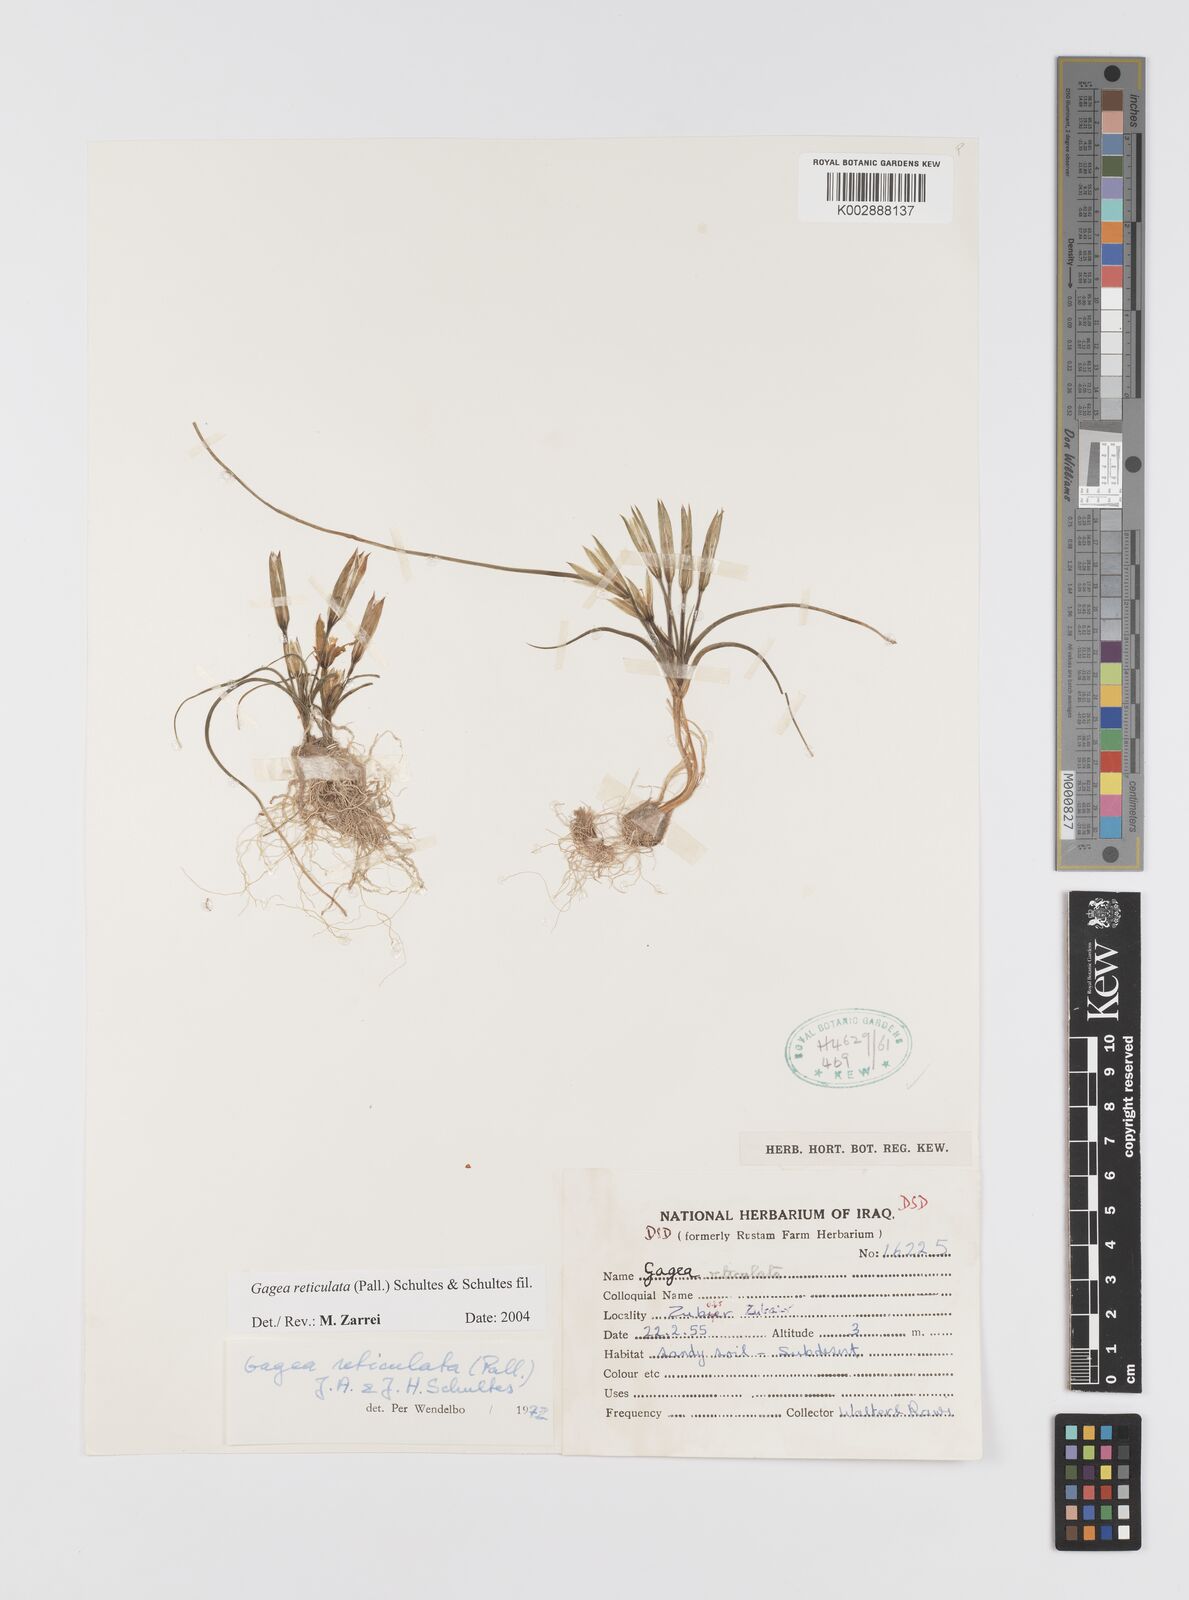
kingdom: Plantae
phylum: Tracheophyta
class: Liliopsida
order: Liliales
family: Liliaceae
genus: Gagea
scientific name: Gagea reticulata
